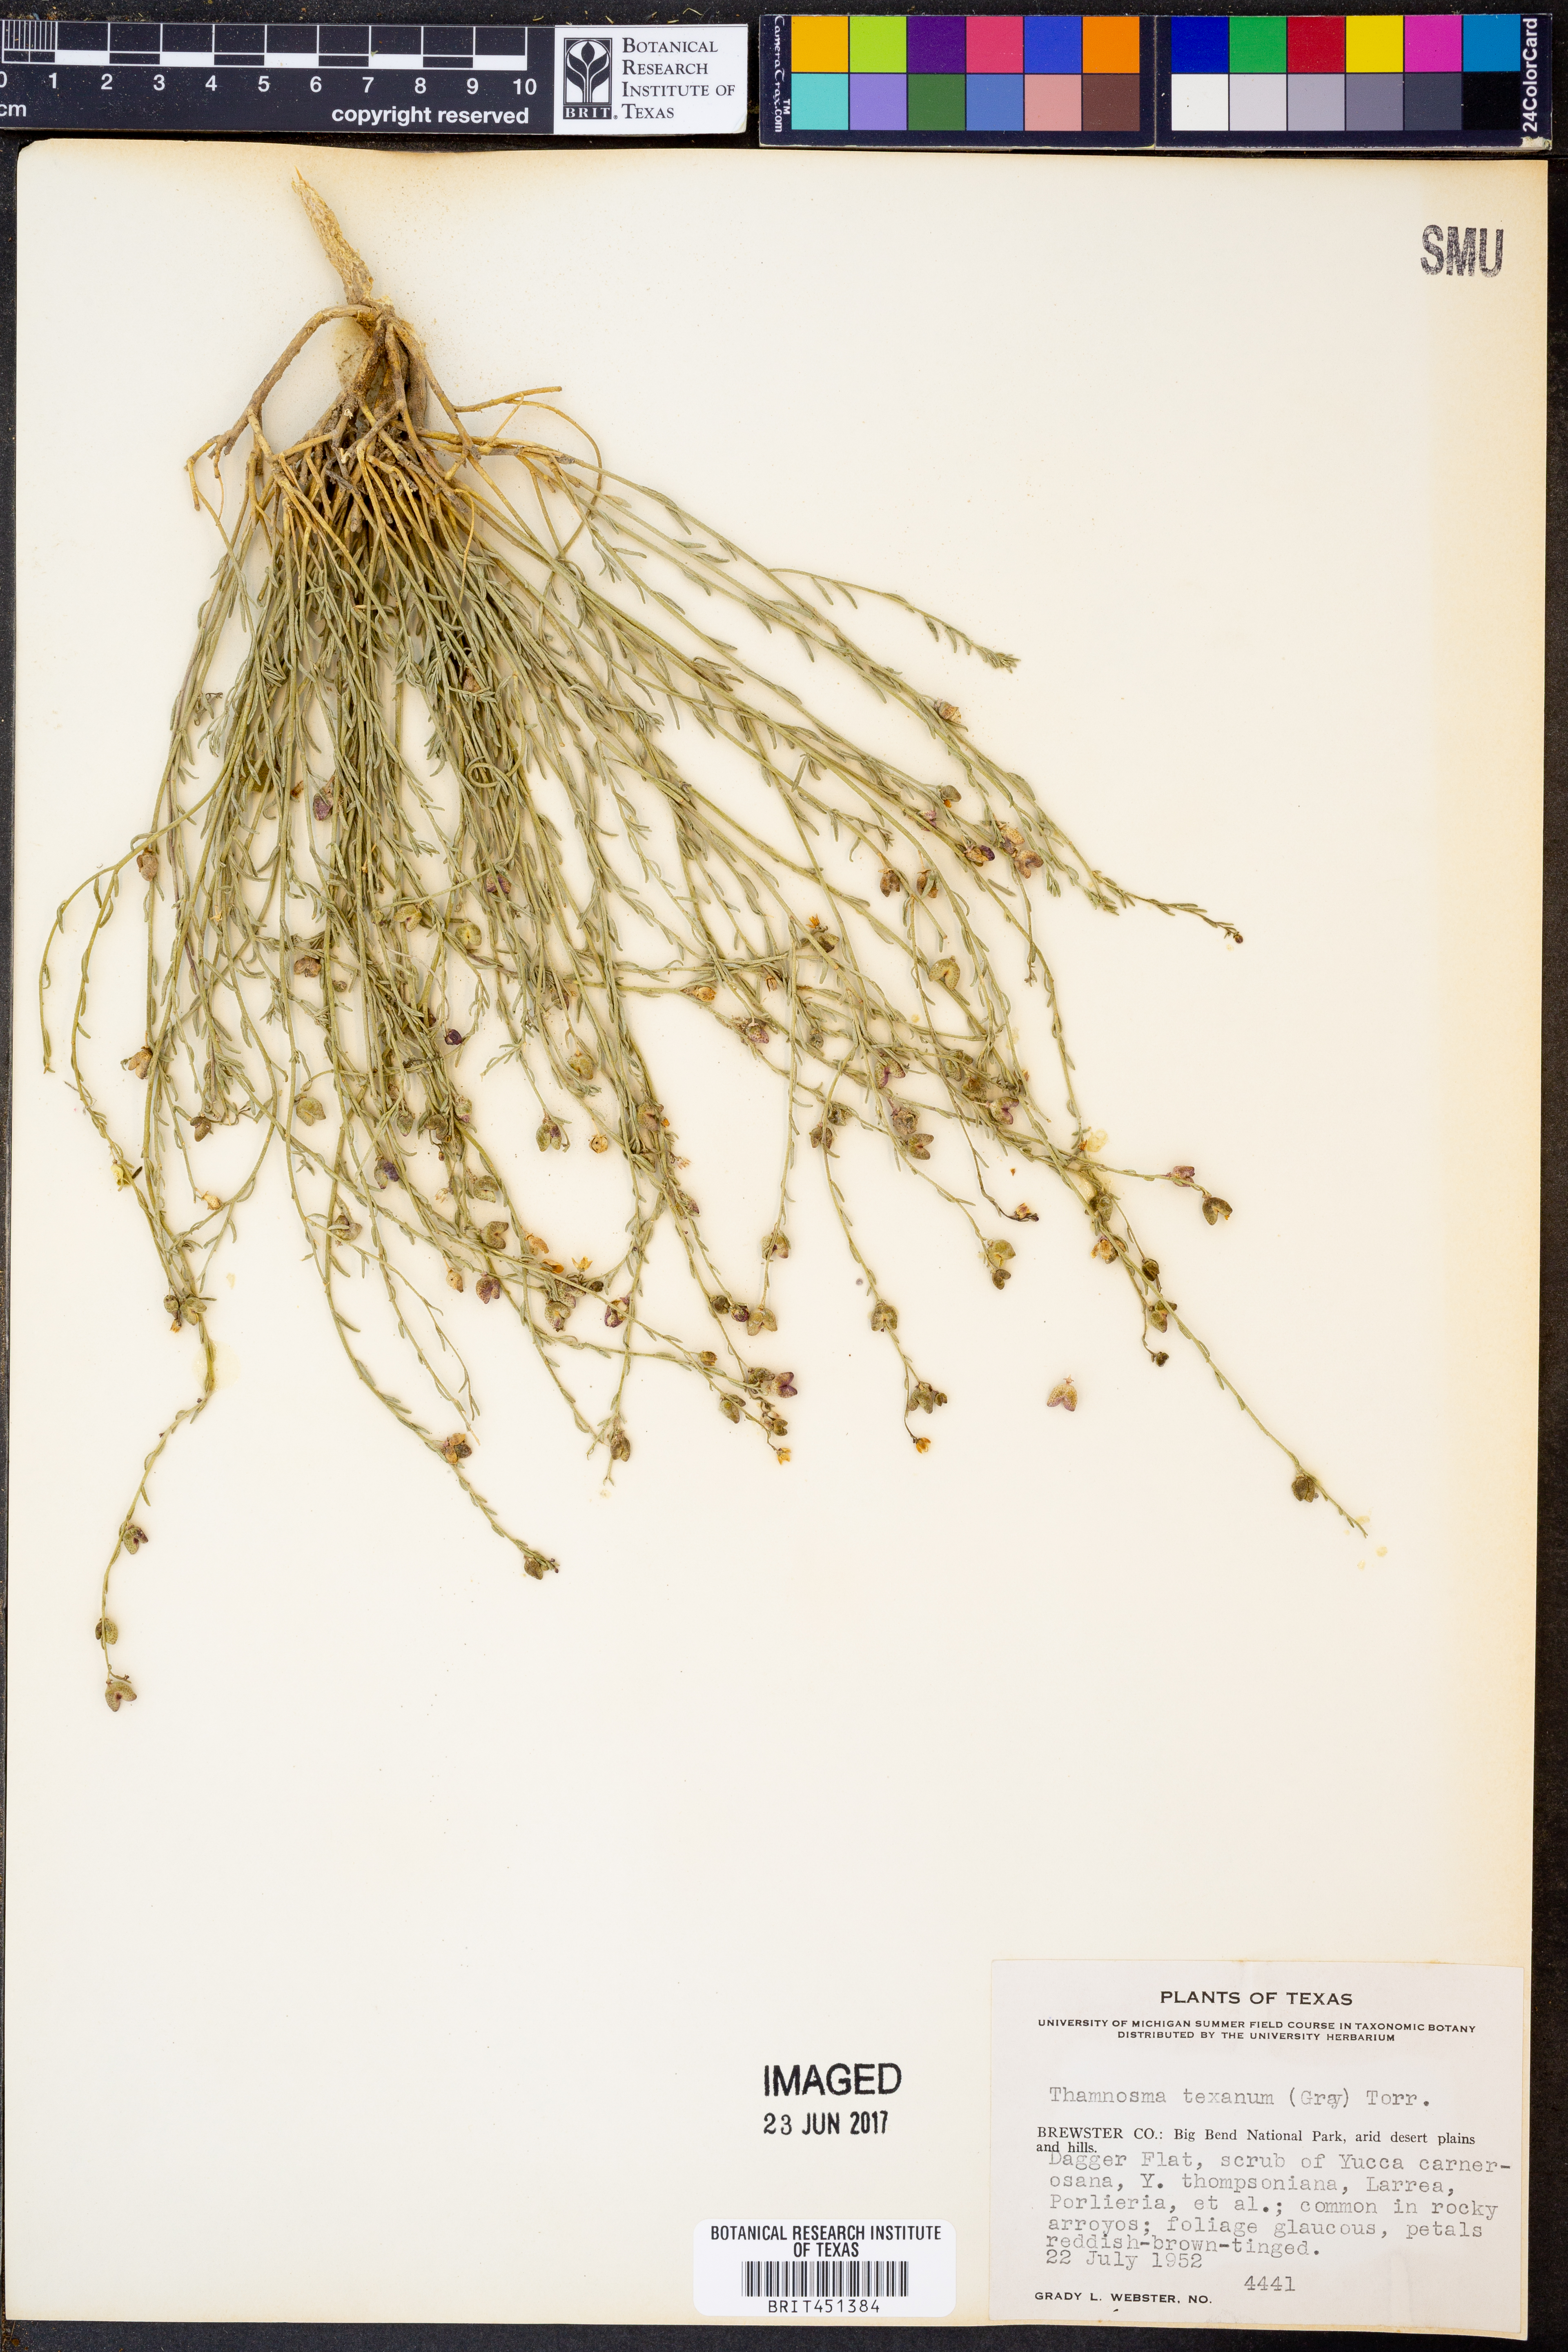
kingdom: Plantae
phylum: Tracheophyta
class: Magnoliopsida
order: Sapindales
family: Rutaceae
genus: Thamnosma
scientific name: Thamnosma texana
